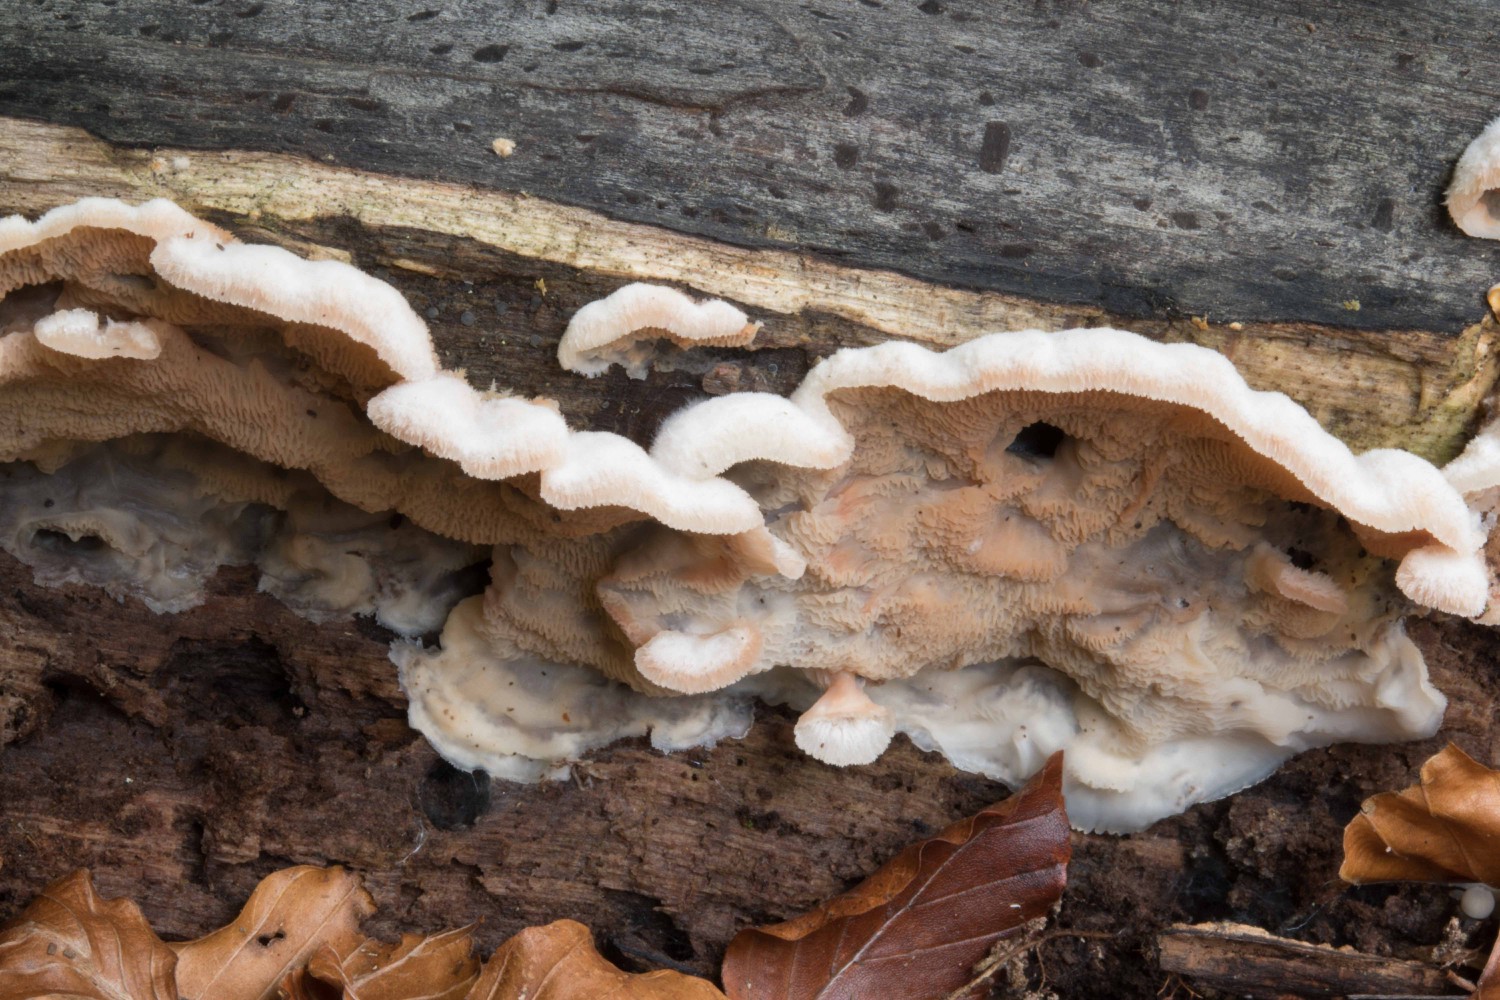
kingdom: Fungi
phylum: Basidiomycota
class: Agaricomycetes
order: Polyporales
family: Meruliaceae
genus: Phlebia
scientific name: Phlebia tremellosa
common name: bævrende åresvamp
